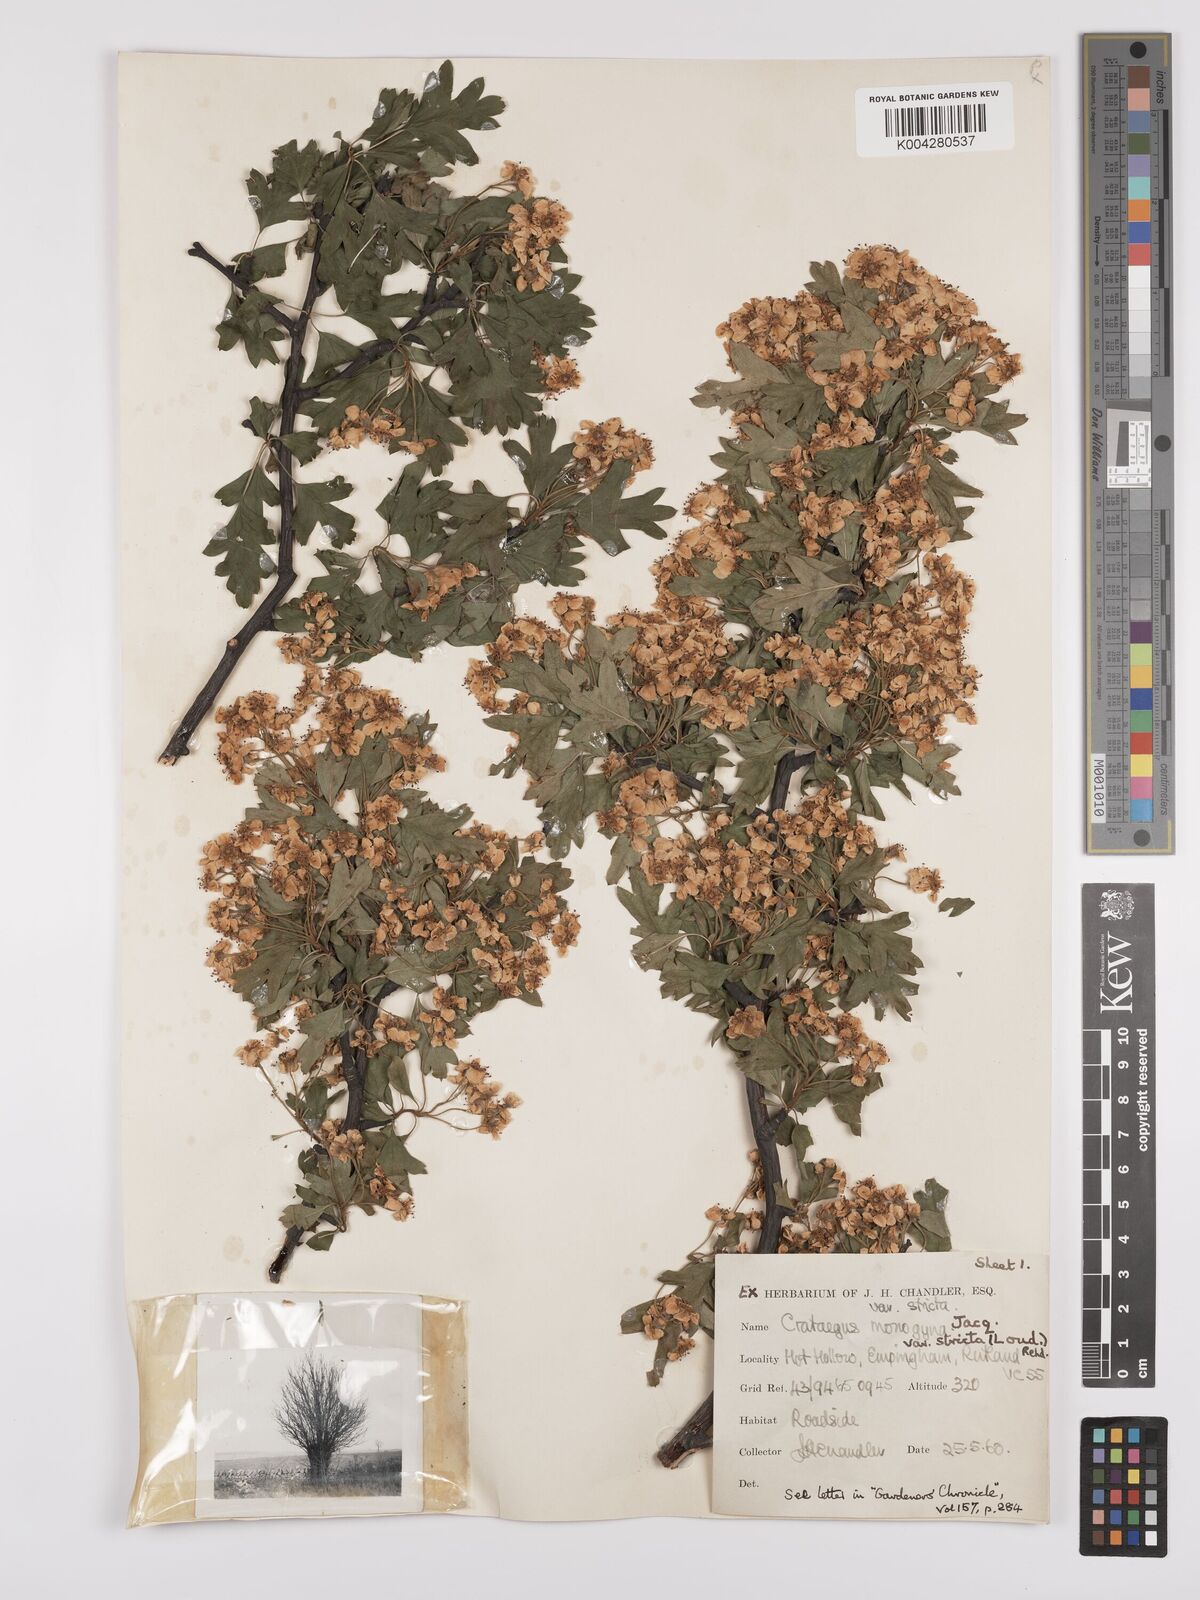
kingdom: Plantae
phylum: Tracheophyta
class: Magnoliopsida
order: Rosales
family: Rosaceae
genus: Crataegus
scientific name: Crataegus monogyna
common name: Hawthorn
